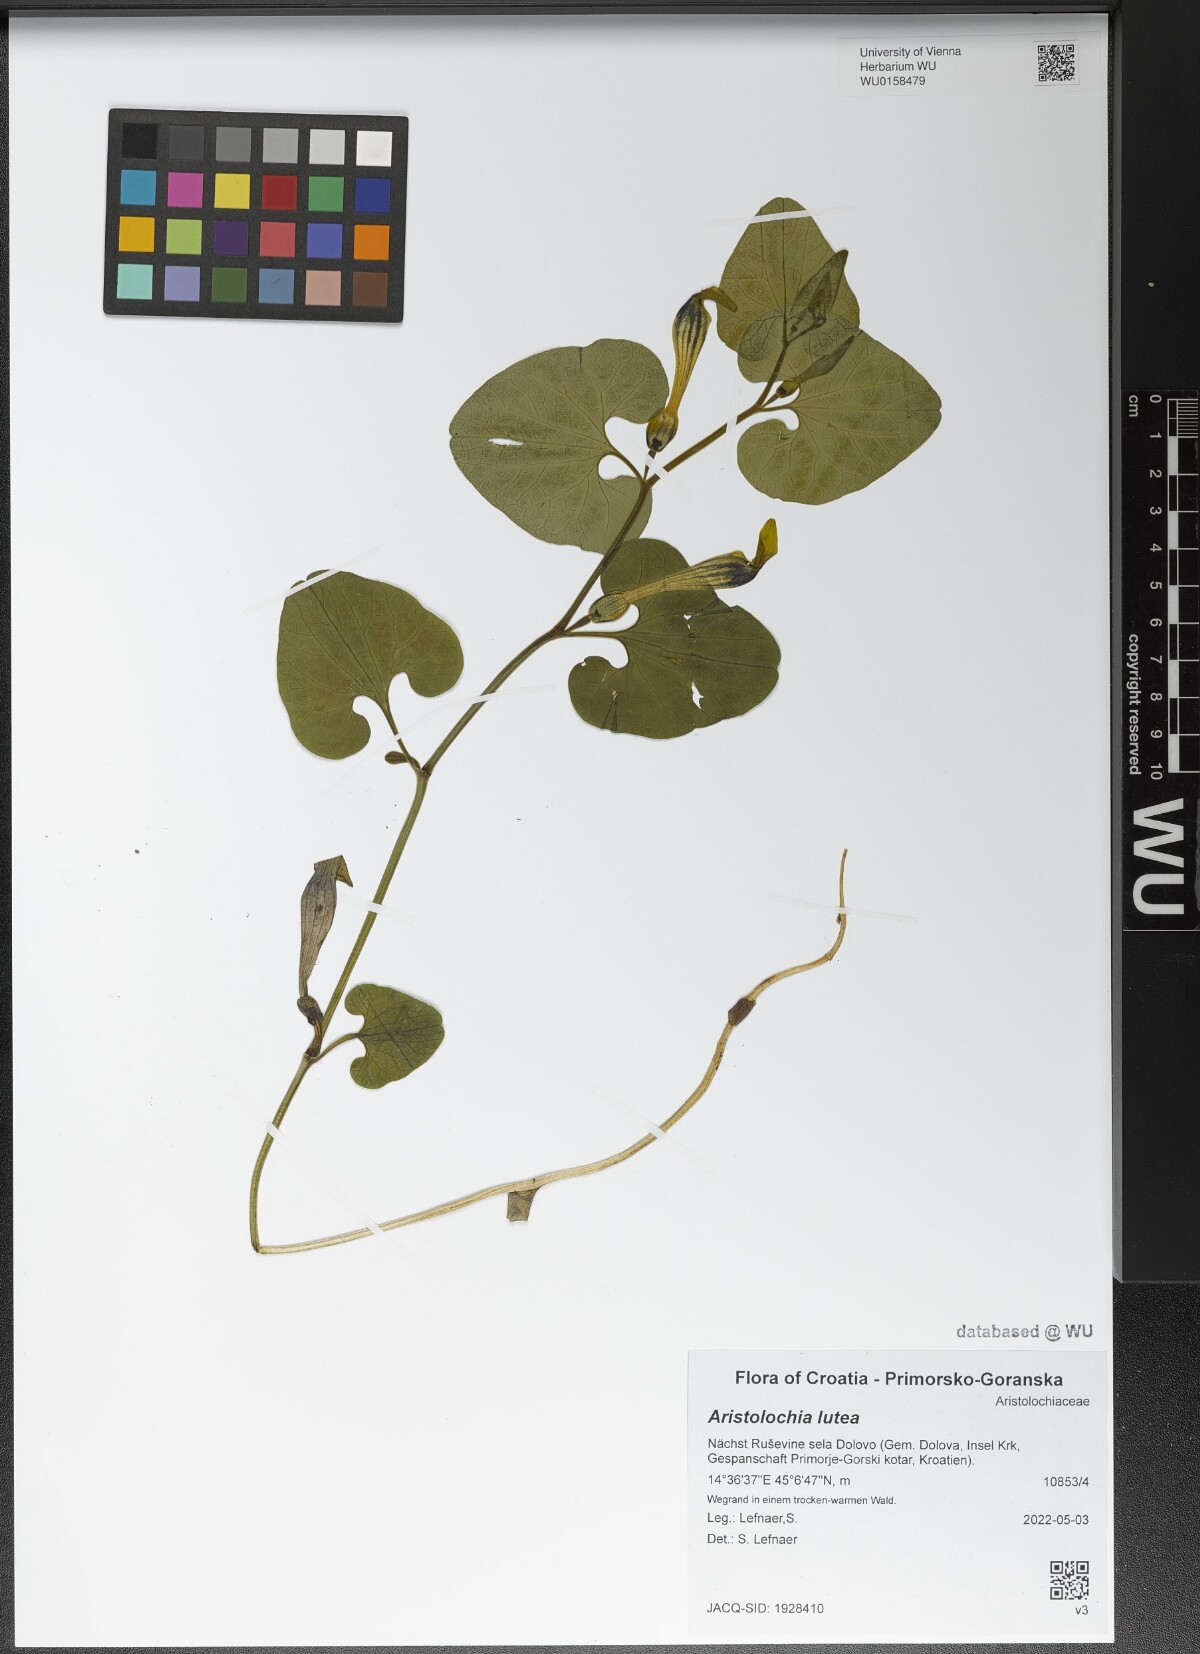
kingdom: Plantae
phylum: Tracheophyta
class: Magnoliopsida
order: Piperales
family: Aristolochiaceae
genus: Aristolochia
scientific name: Aristolochia lutea
